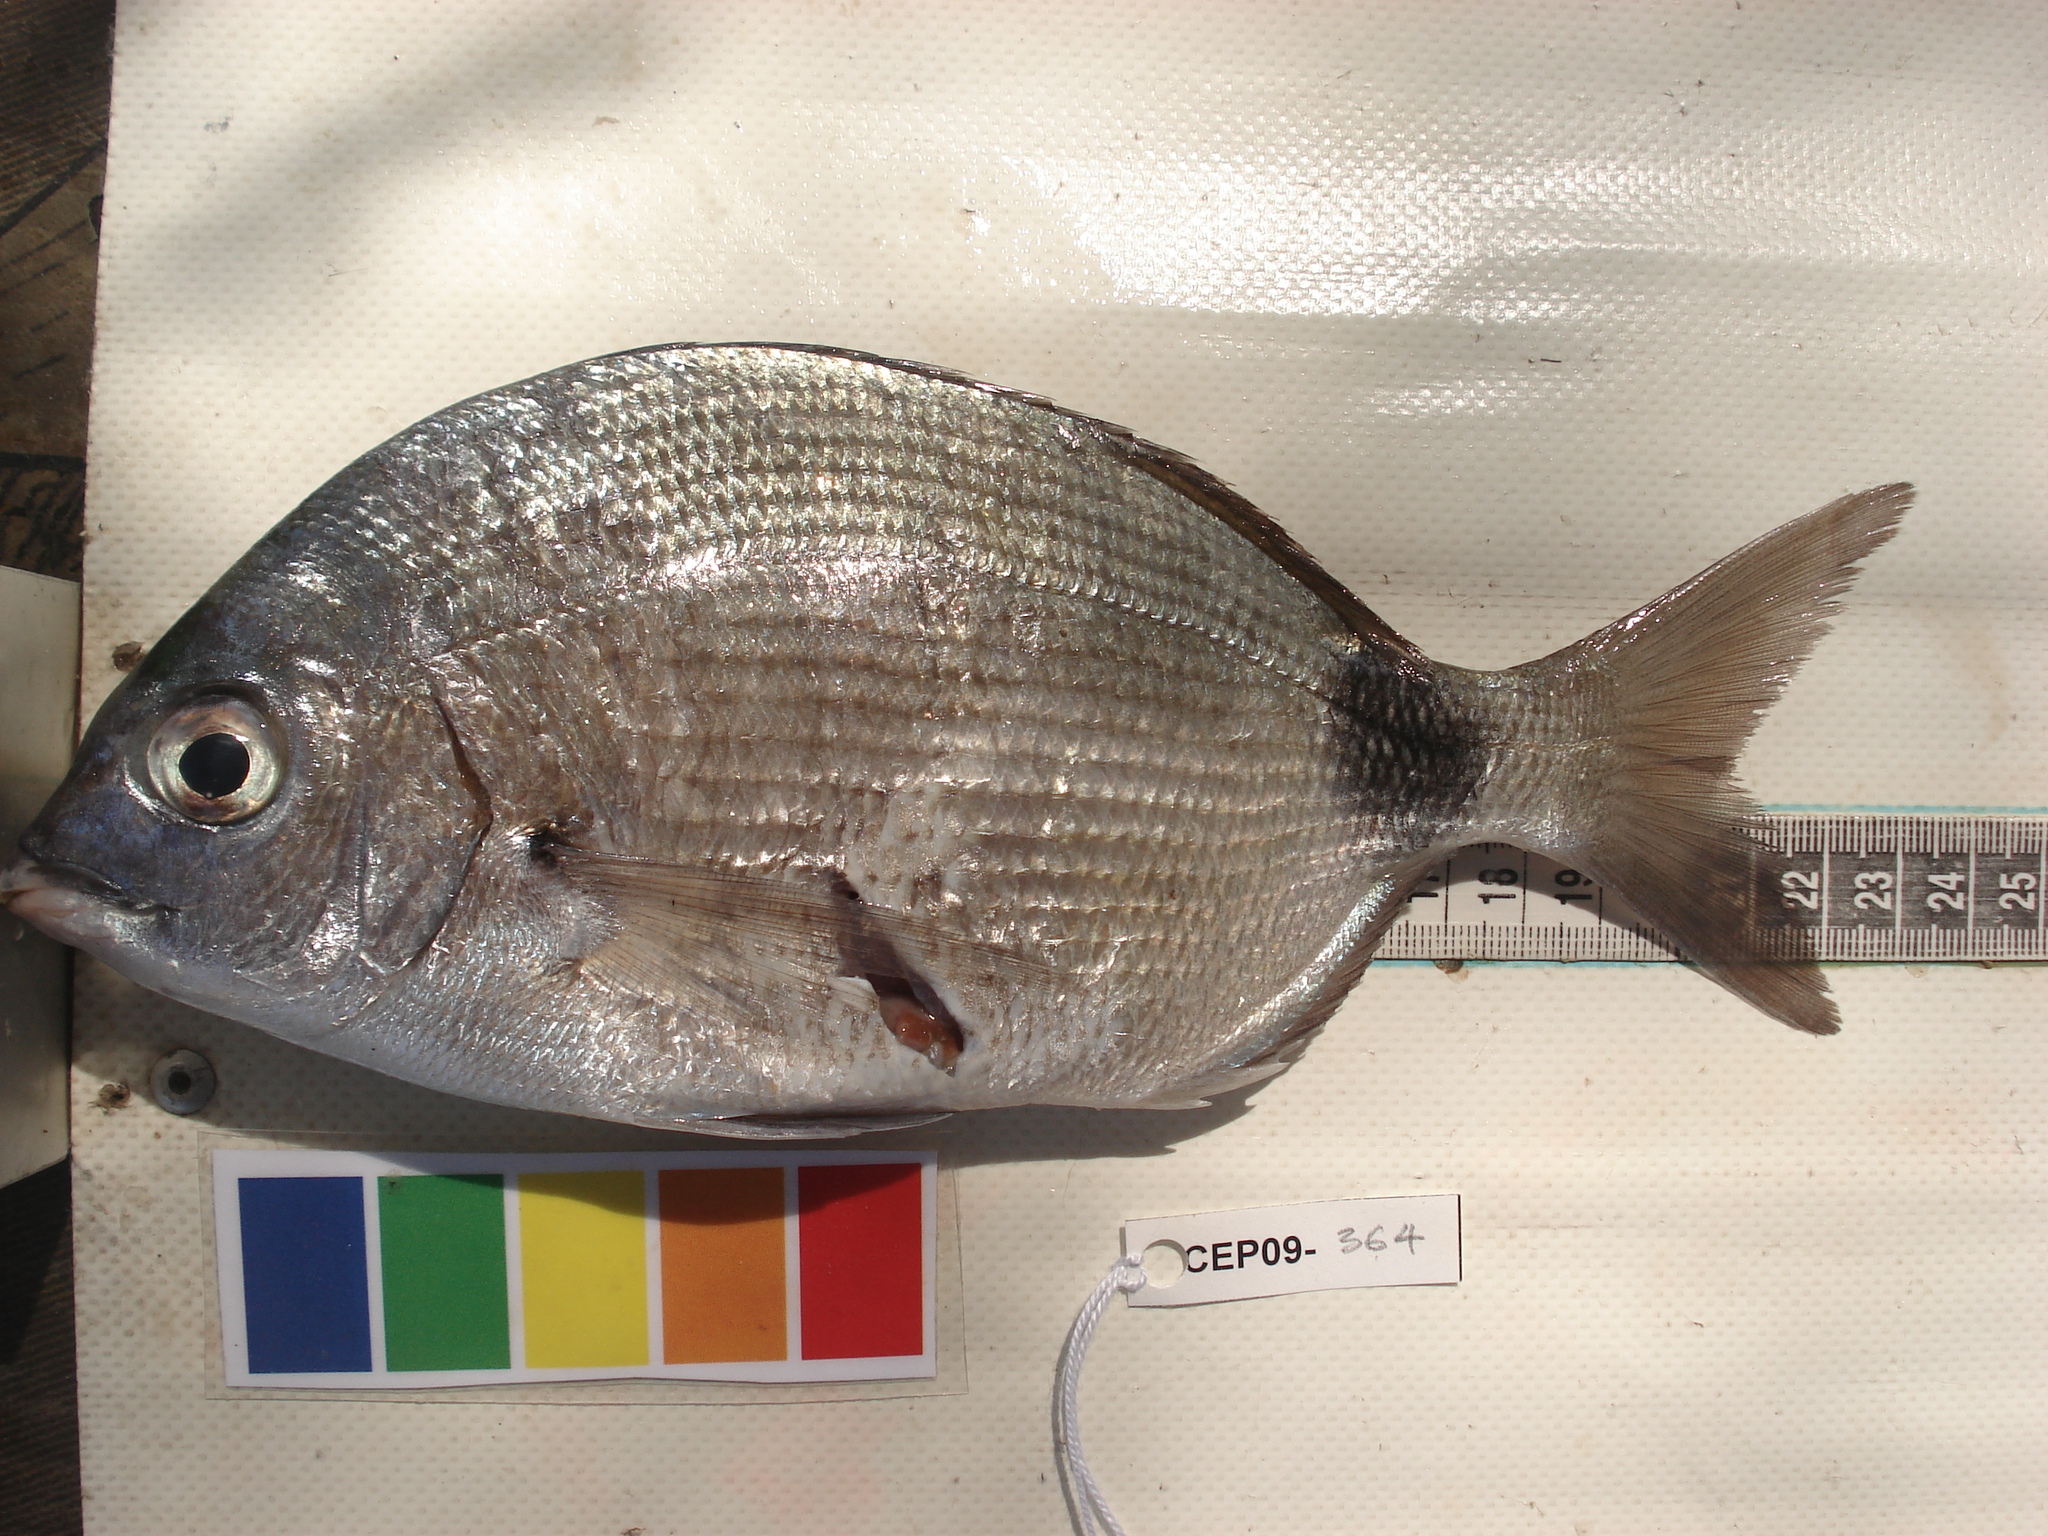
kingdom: Animalia
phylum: Chordata
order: Perciformes
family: Sparidae
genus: Diplodus
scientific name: Diplodus capensis
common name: Blacktail
